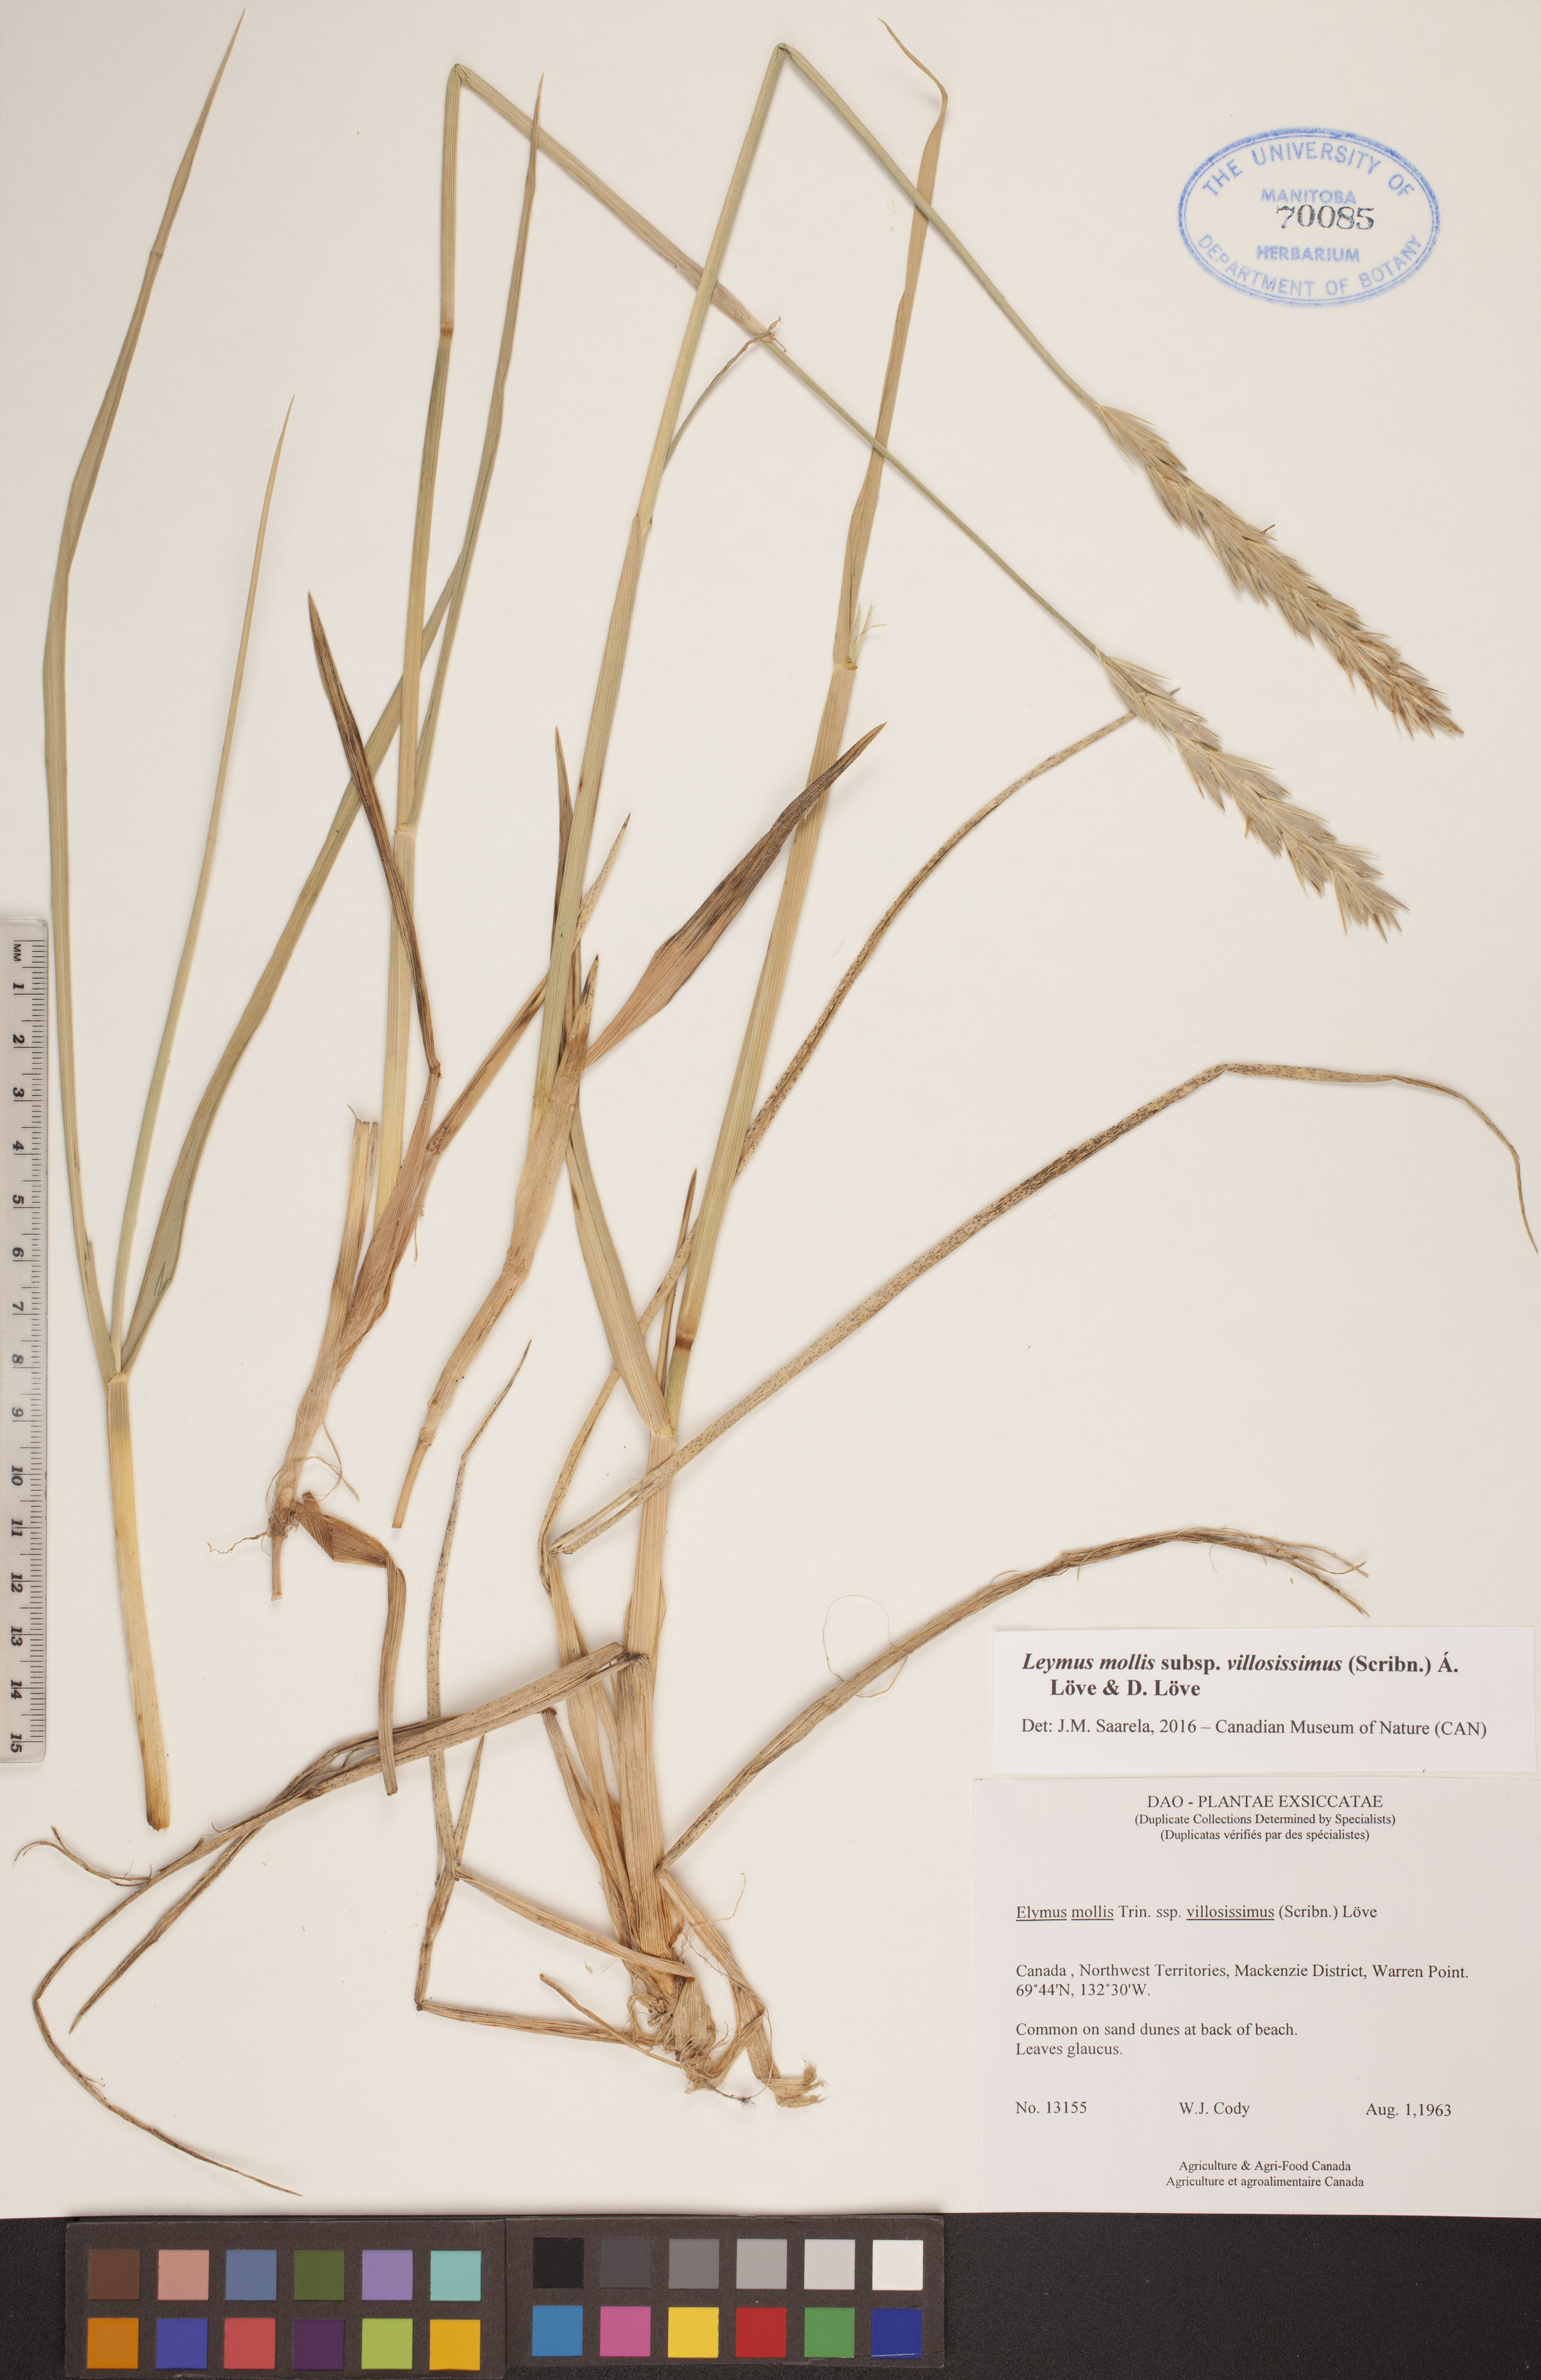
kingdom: Plantae
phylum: Tracheophyta
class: Liliopsida
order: Poales
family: Poaceae
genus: Leymus
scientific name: Leymus villosissimus
